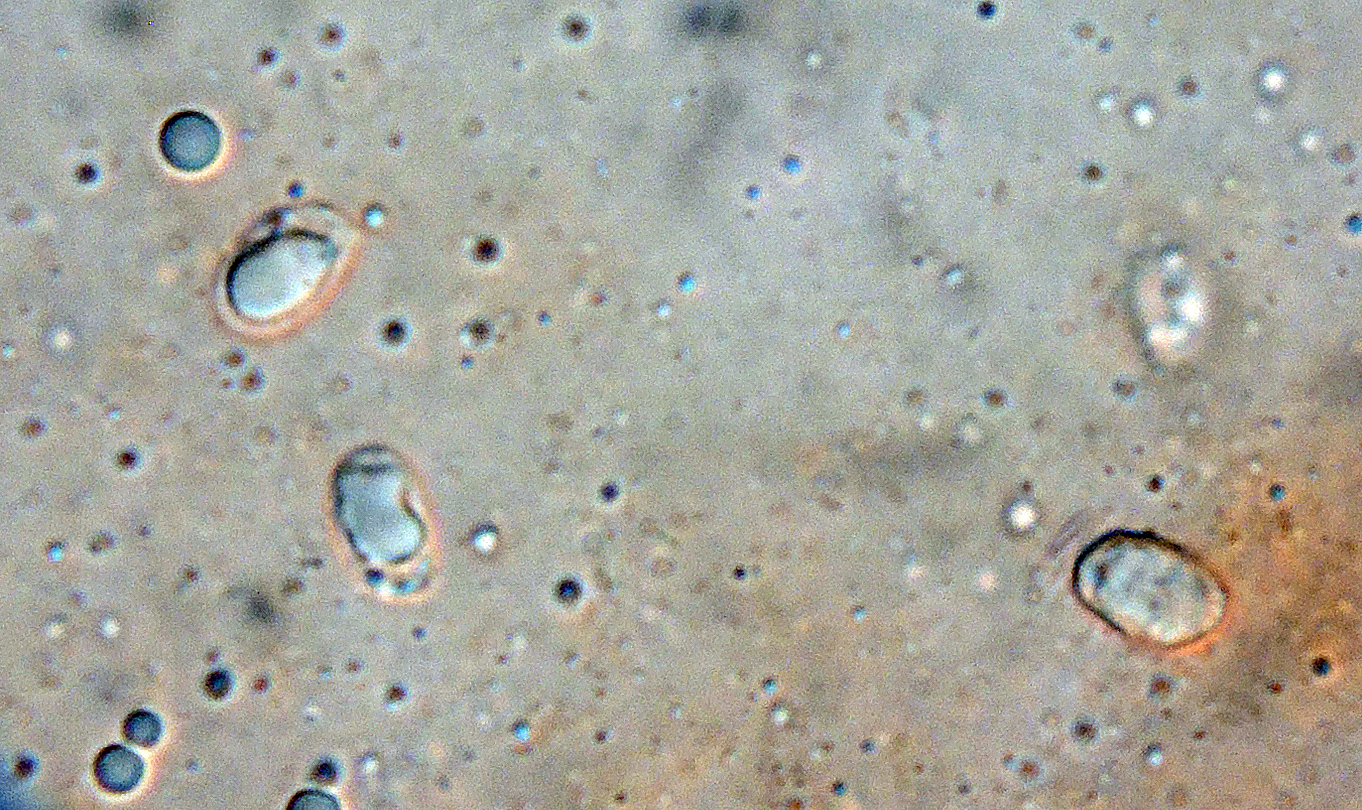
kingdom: Fungi
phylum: Basidiomycota
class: Agaricomycetes
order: Agaricales
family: Lyophyllaceae
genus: Tephrocybe
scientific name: Tephrocybe atrata
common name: brandplet-gråblad
